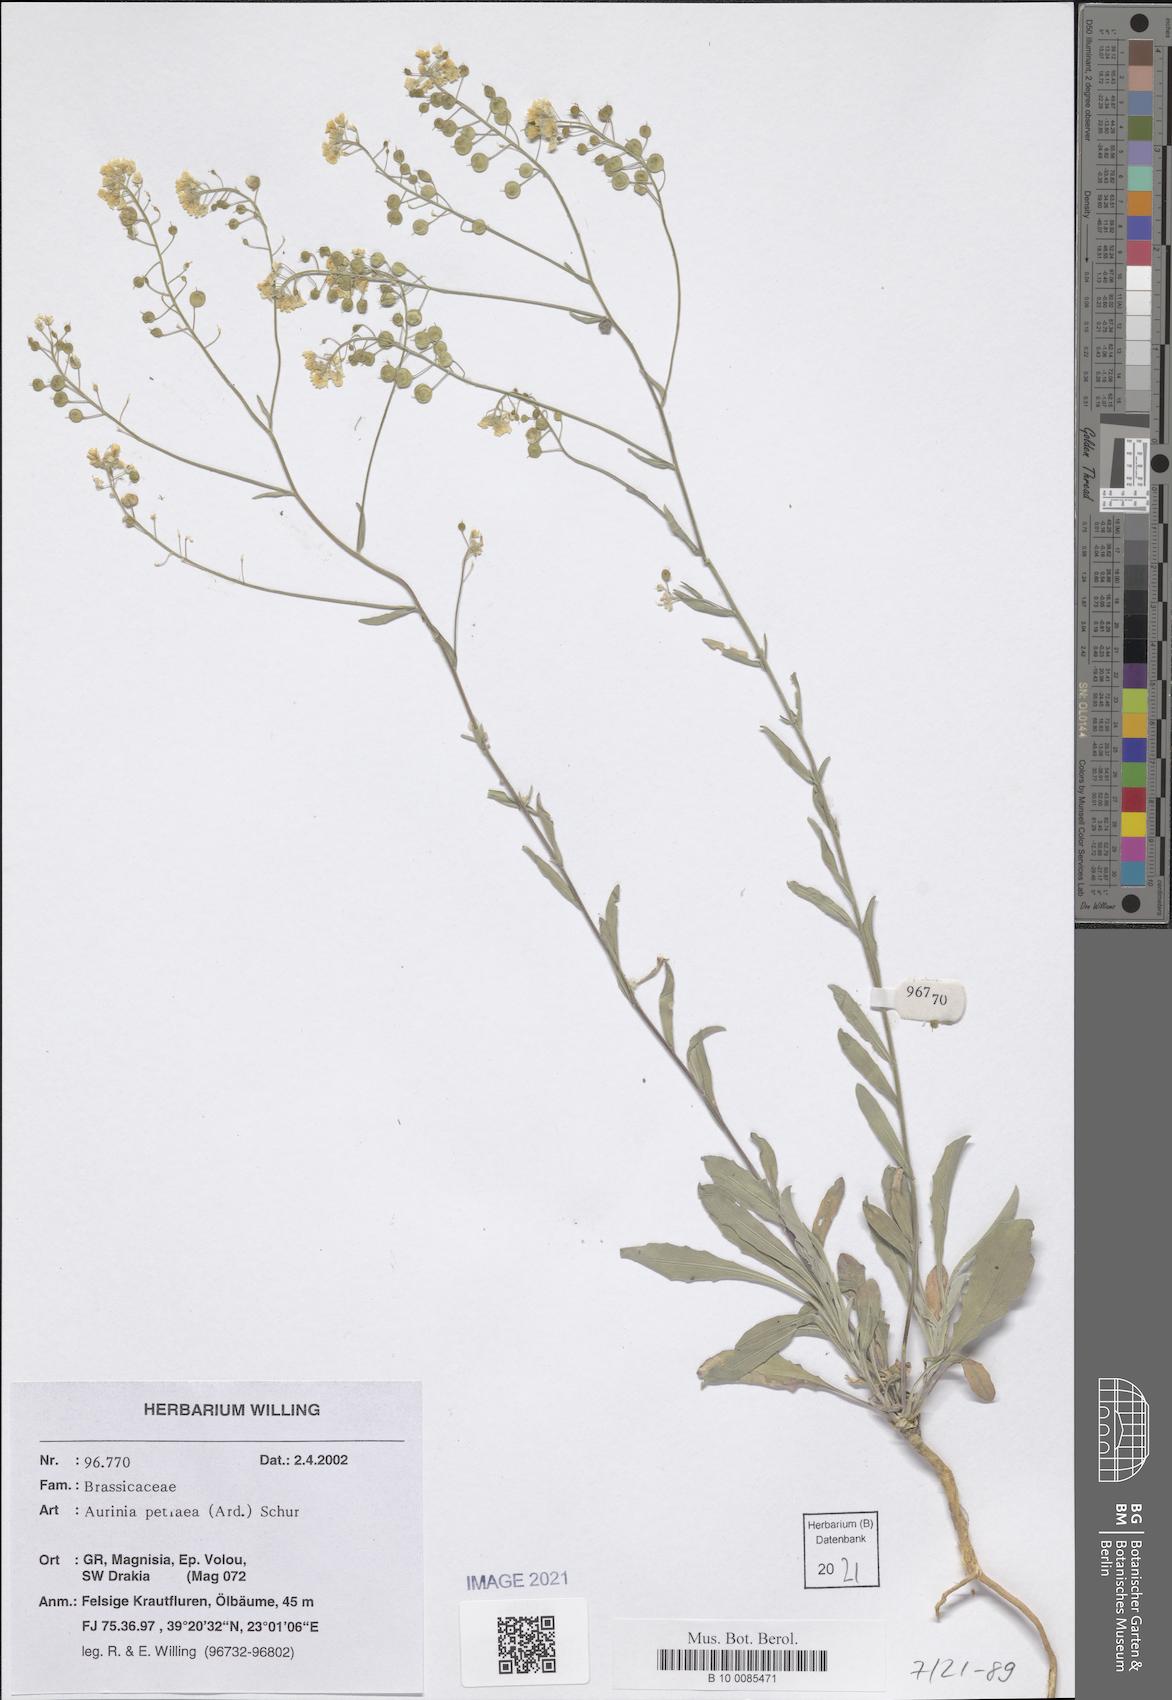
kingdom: Plantae
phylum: Tracheophyta
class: Magnoliopsida
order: Brassicales
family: Brassicaceae
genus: Aurinia
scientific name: Aurinia petraea
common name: Goldentuft
